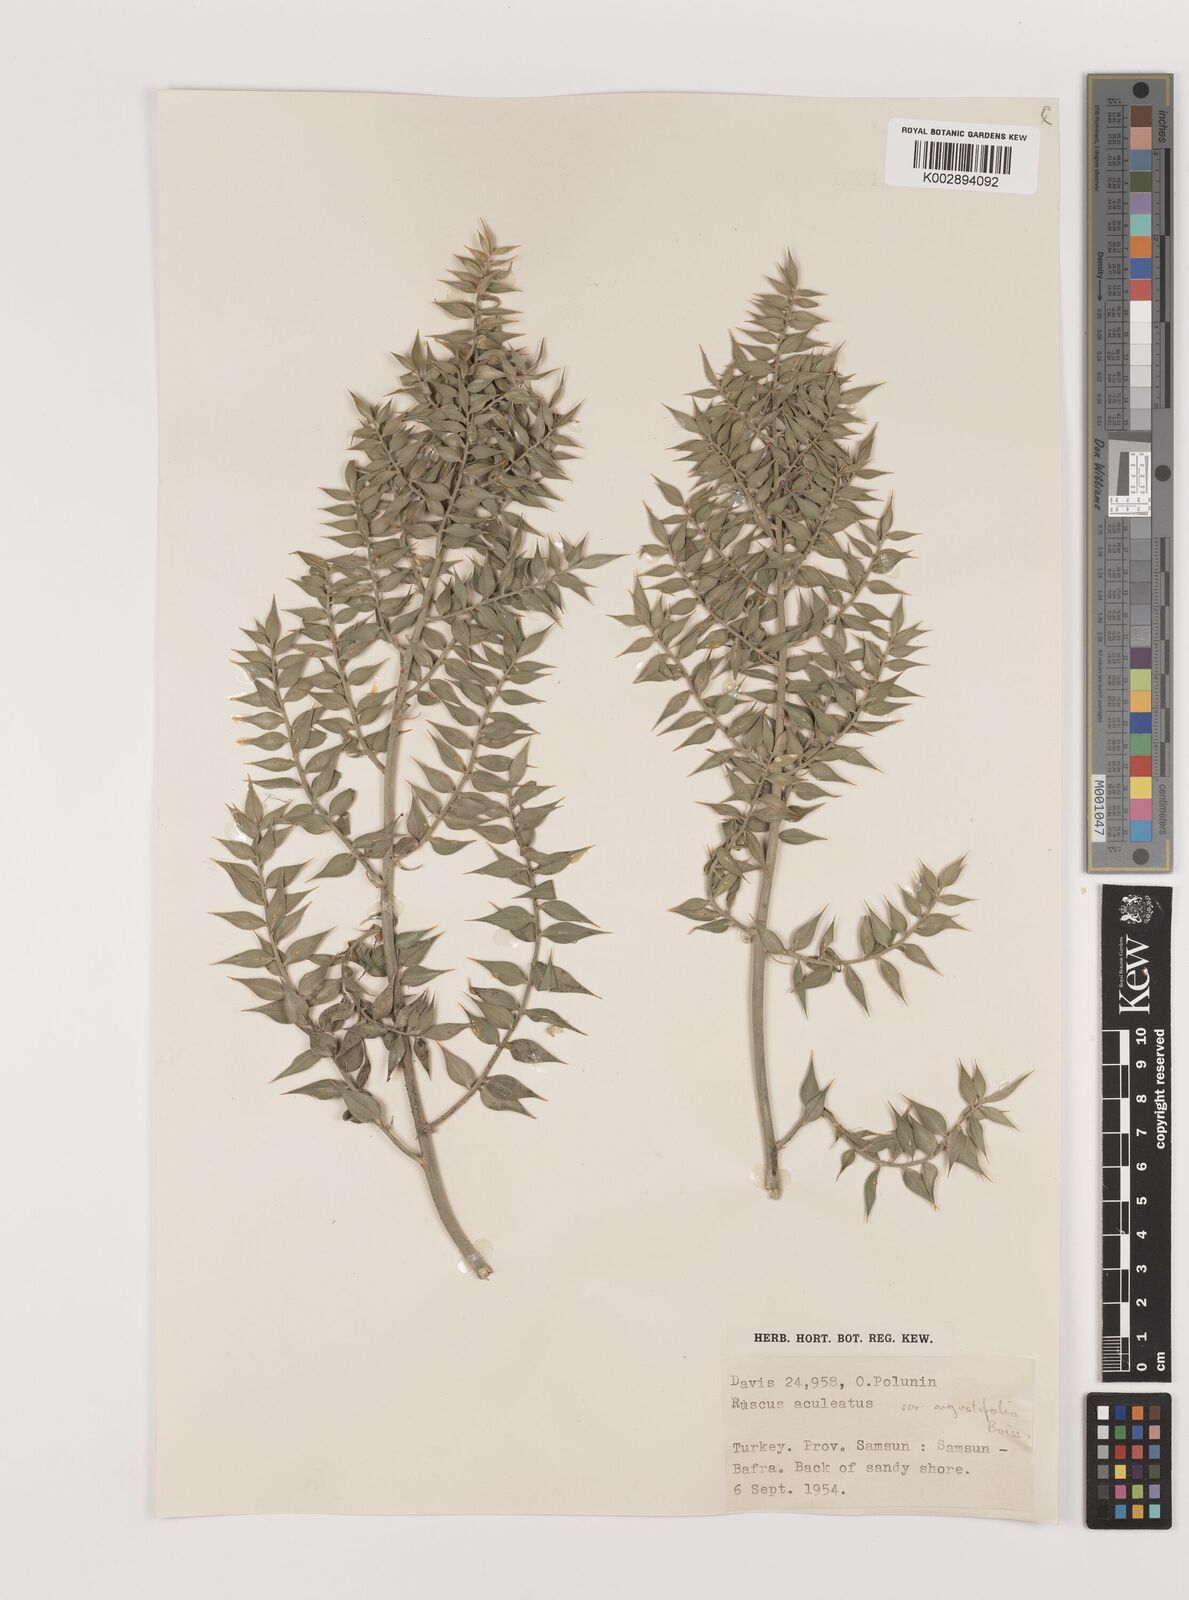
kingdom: Plantae
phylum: Tracheophyta
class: Liliopsida
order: Asparagales
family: Asparagaceae
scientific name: Asparagaceae
